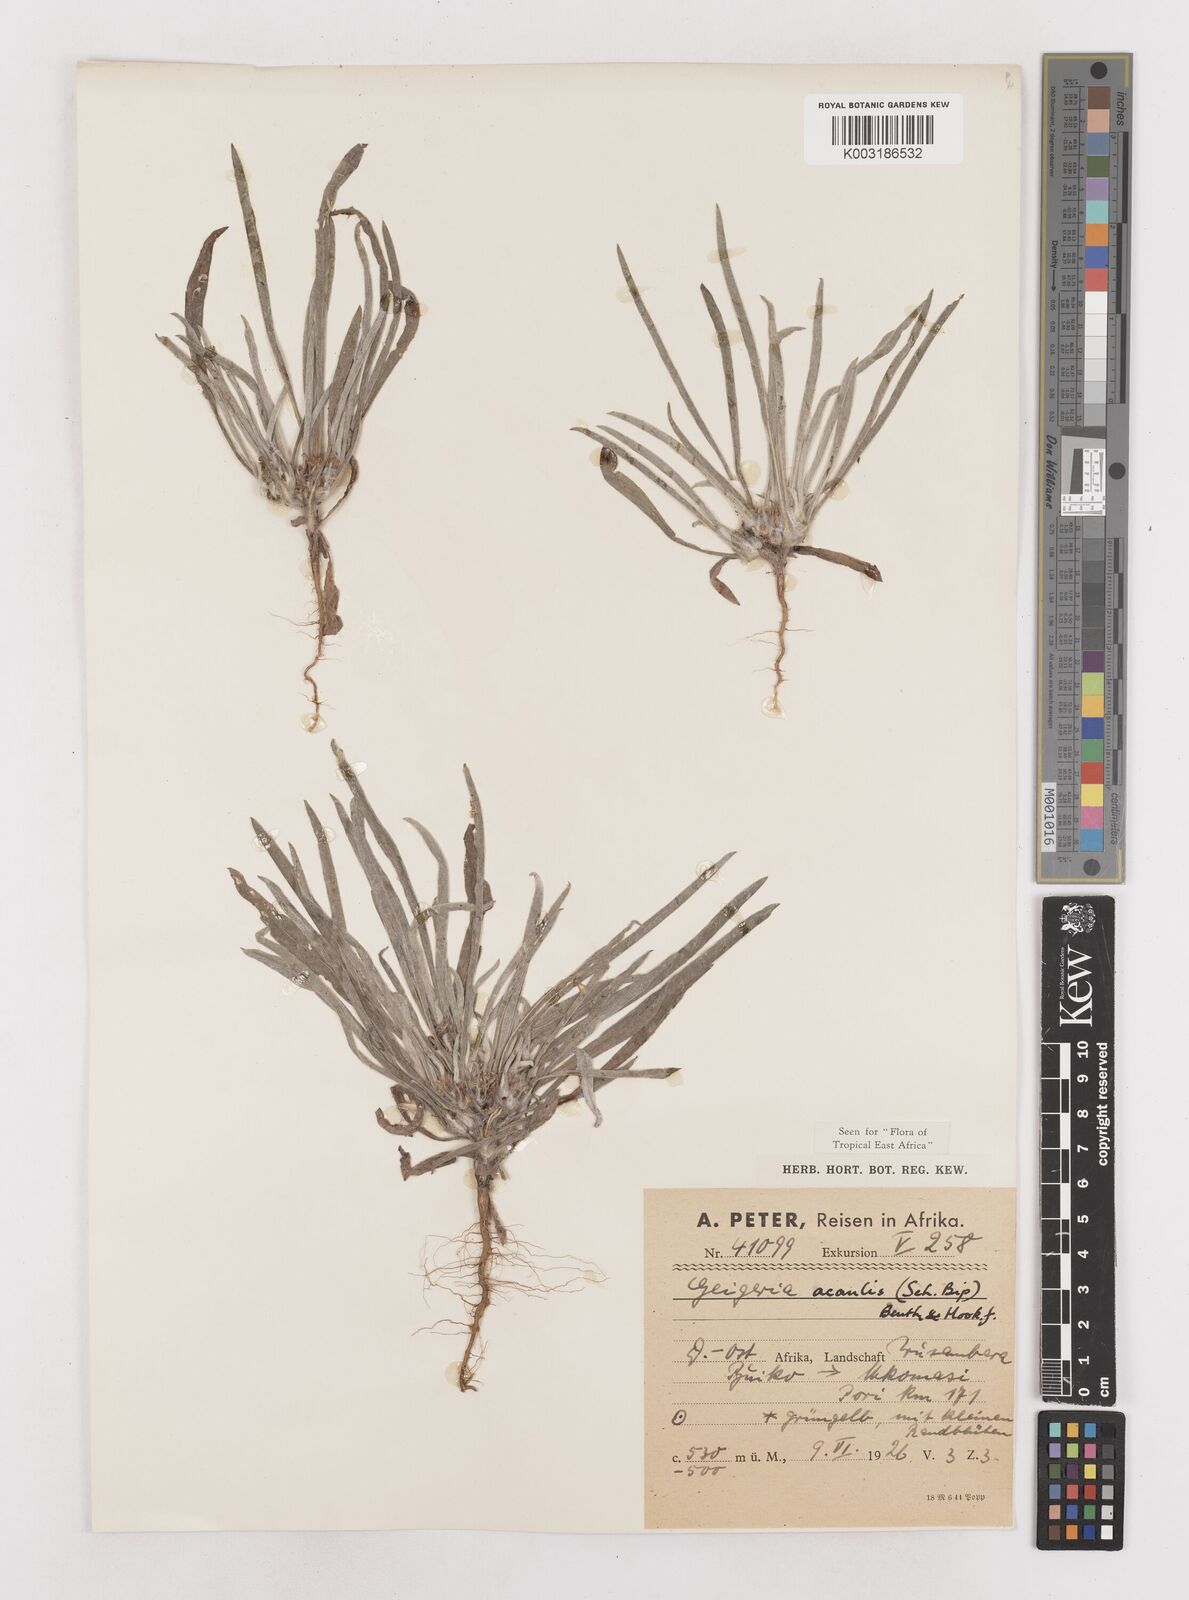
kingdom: Plantae
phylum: Tracheophyta
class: Magnoliopsida
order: Asterales
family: Asteraceae
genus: Geigeria
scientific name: Geigeria acaulis
